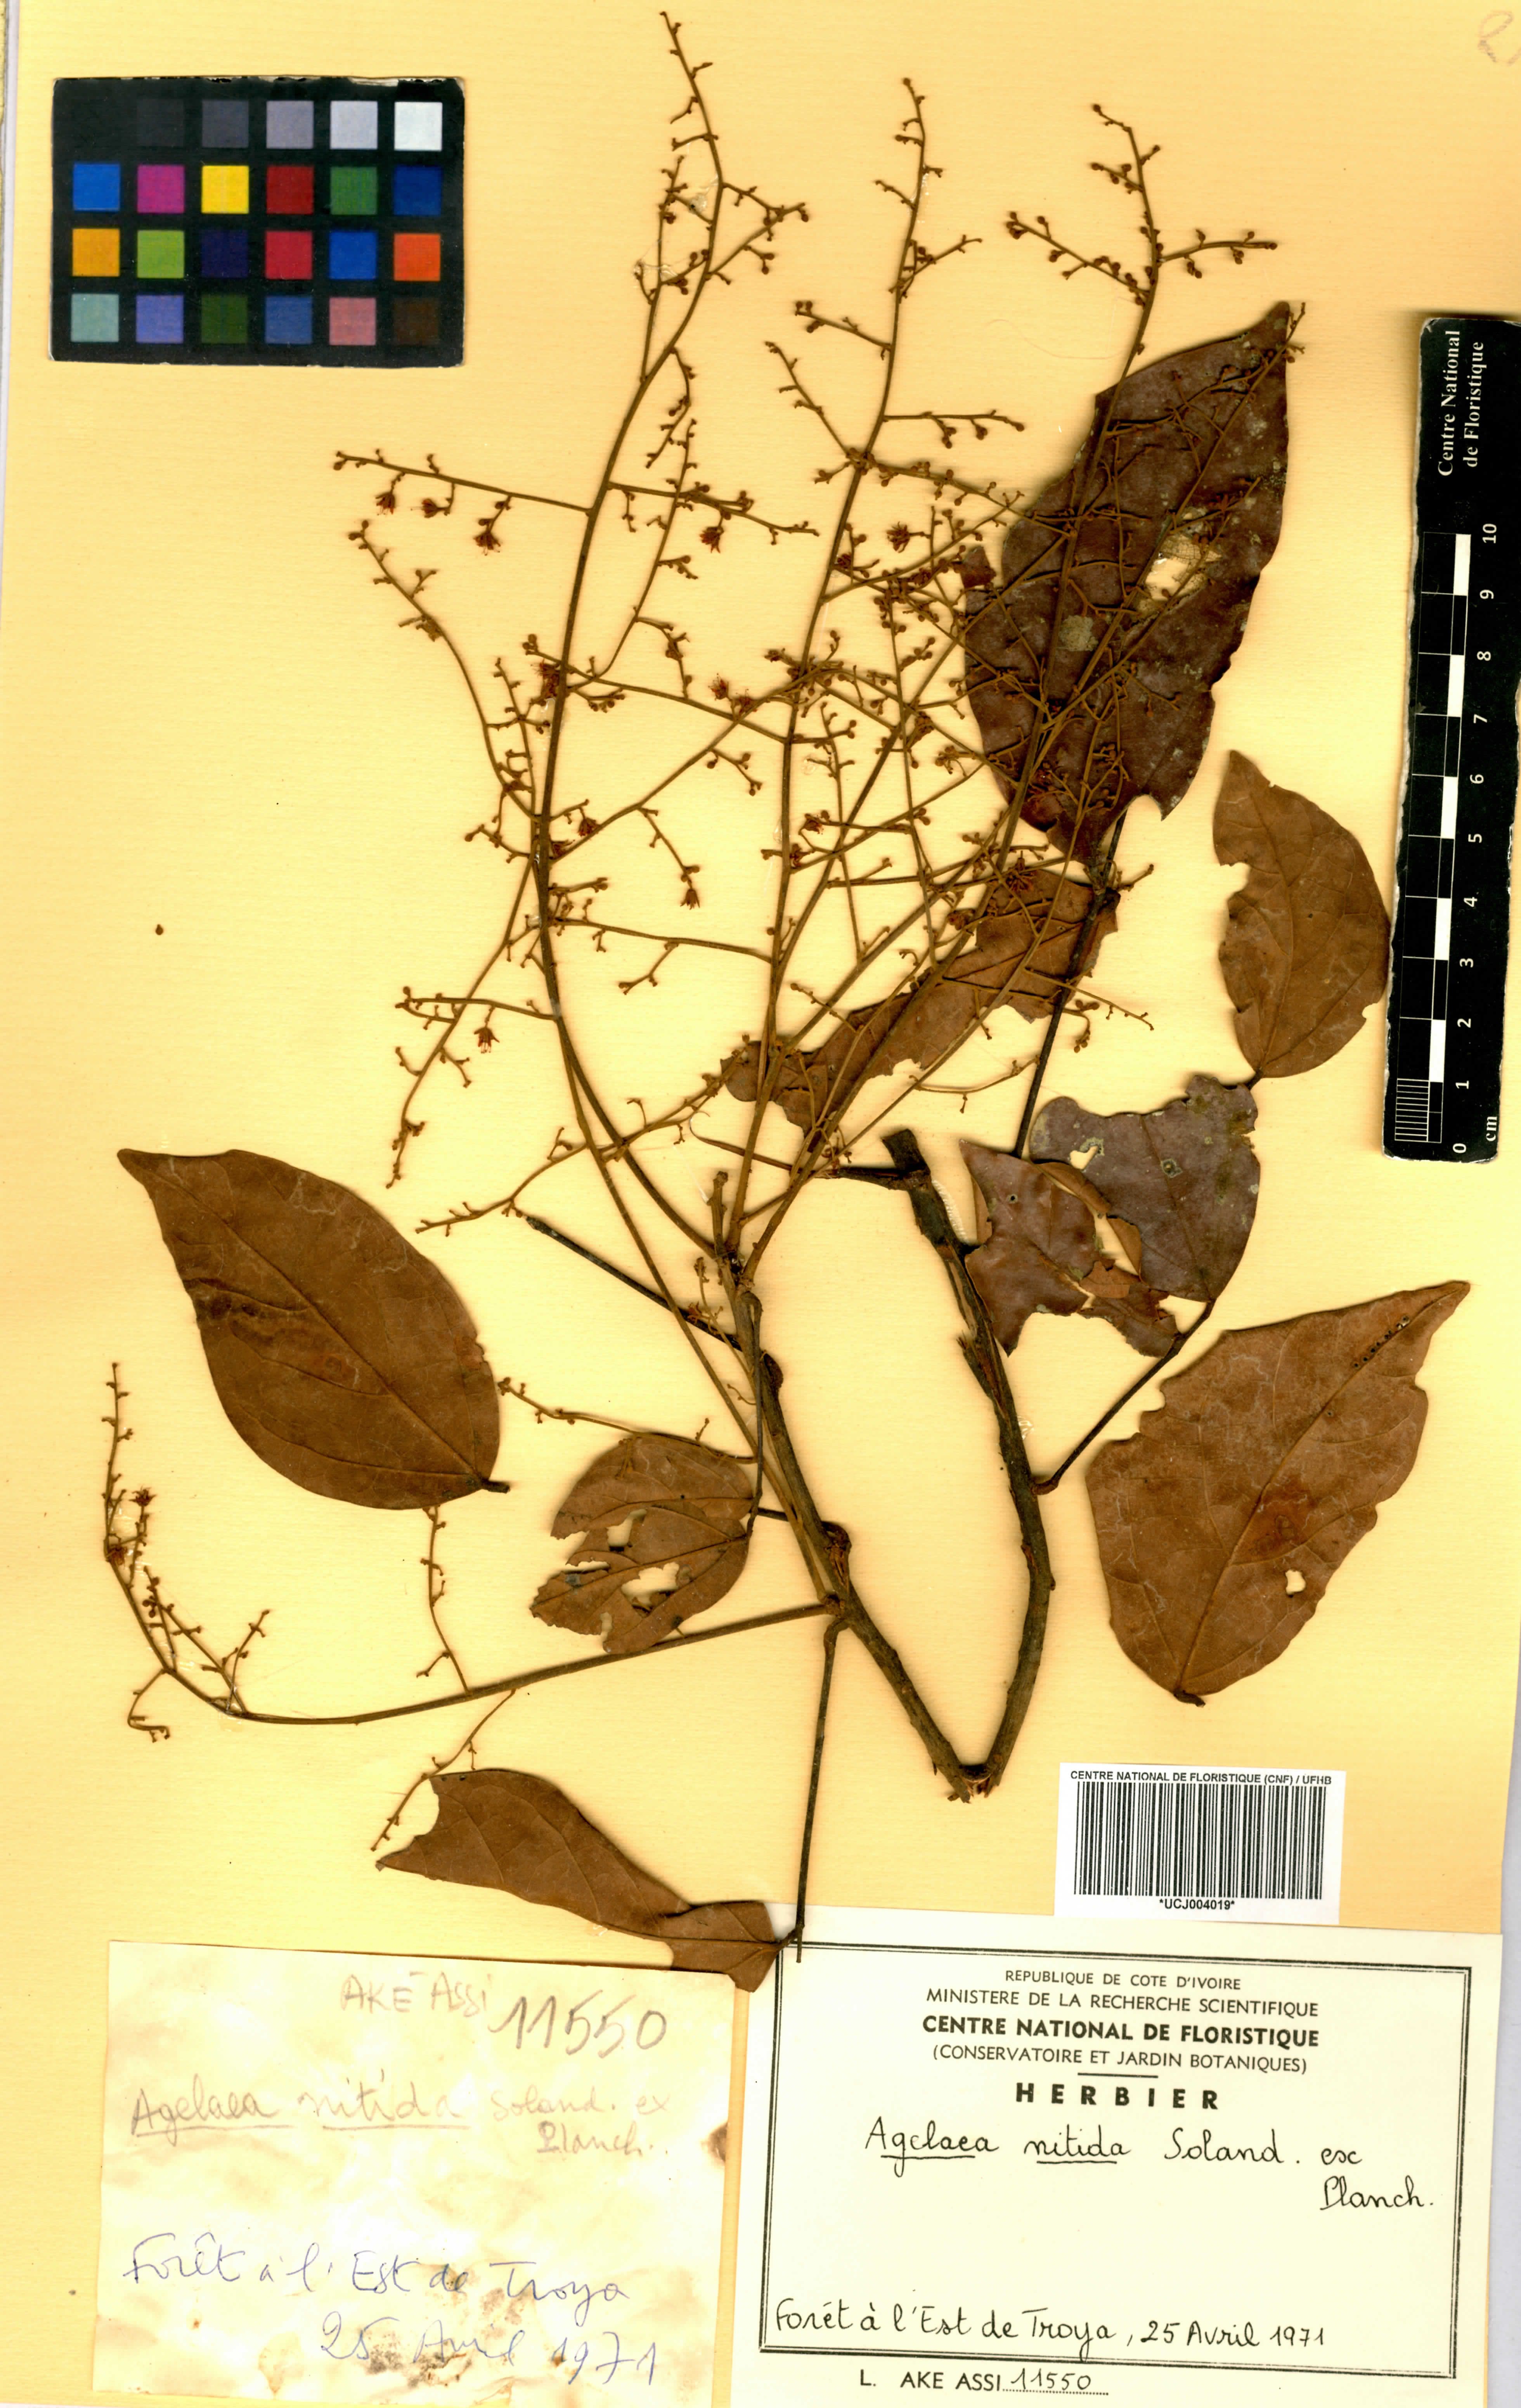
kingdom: Plantae
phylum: Tracheophyta
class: Magnoliopsida
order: Oxalidales
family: Connaraceae
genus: Agelaea
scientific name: Agelaea pentagyna
